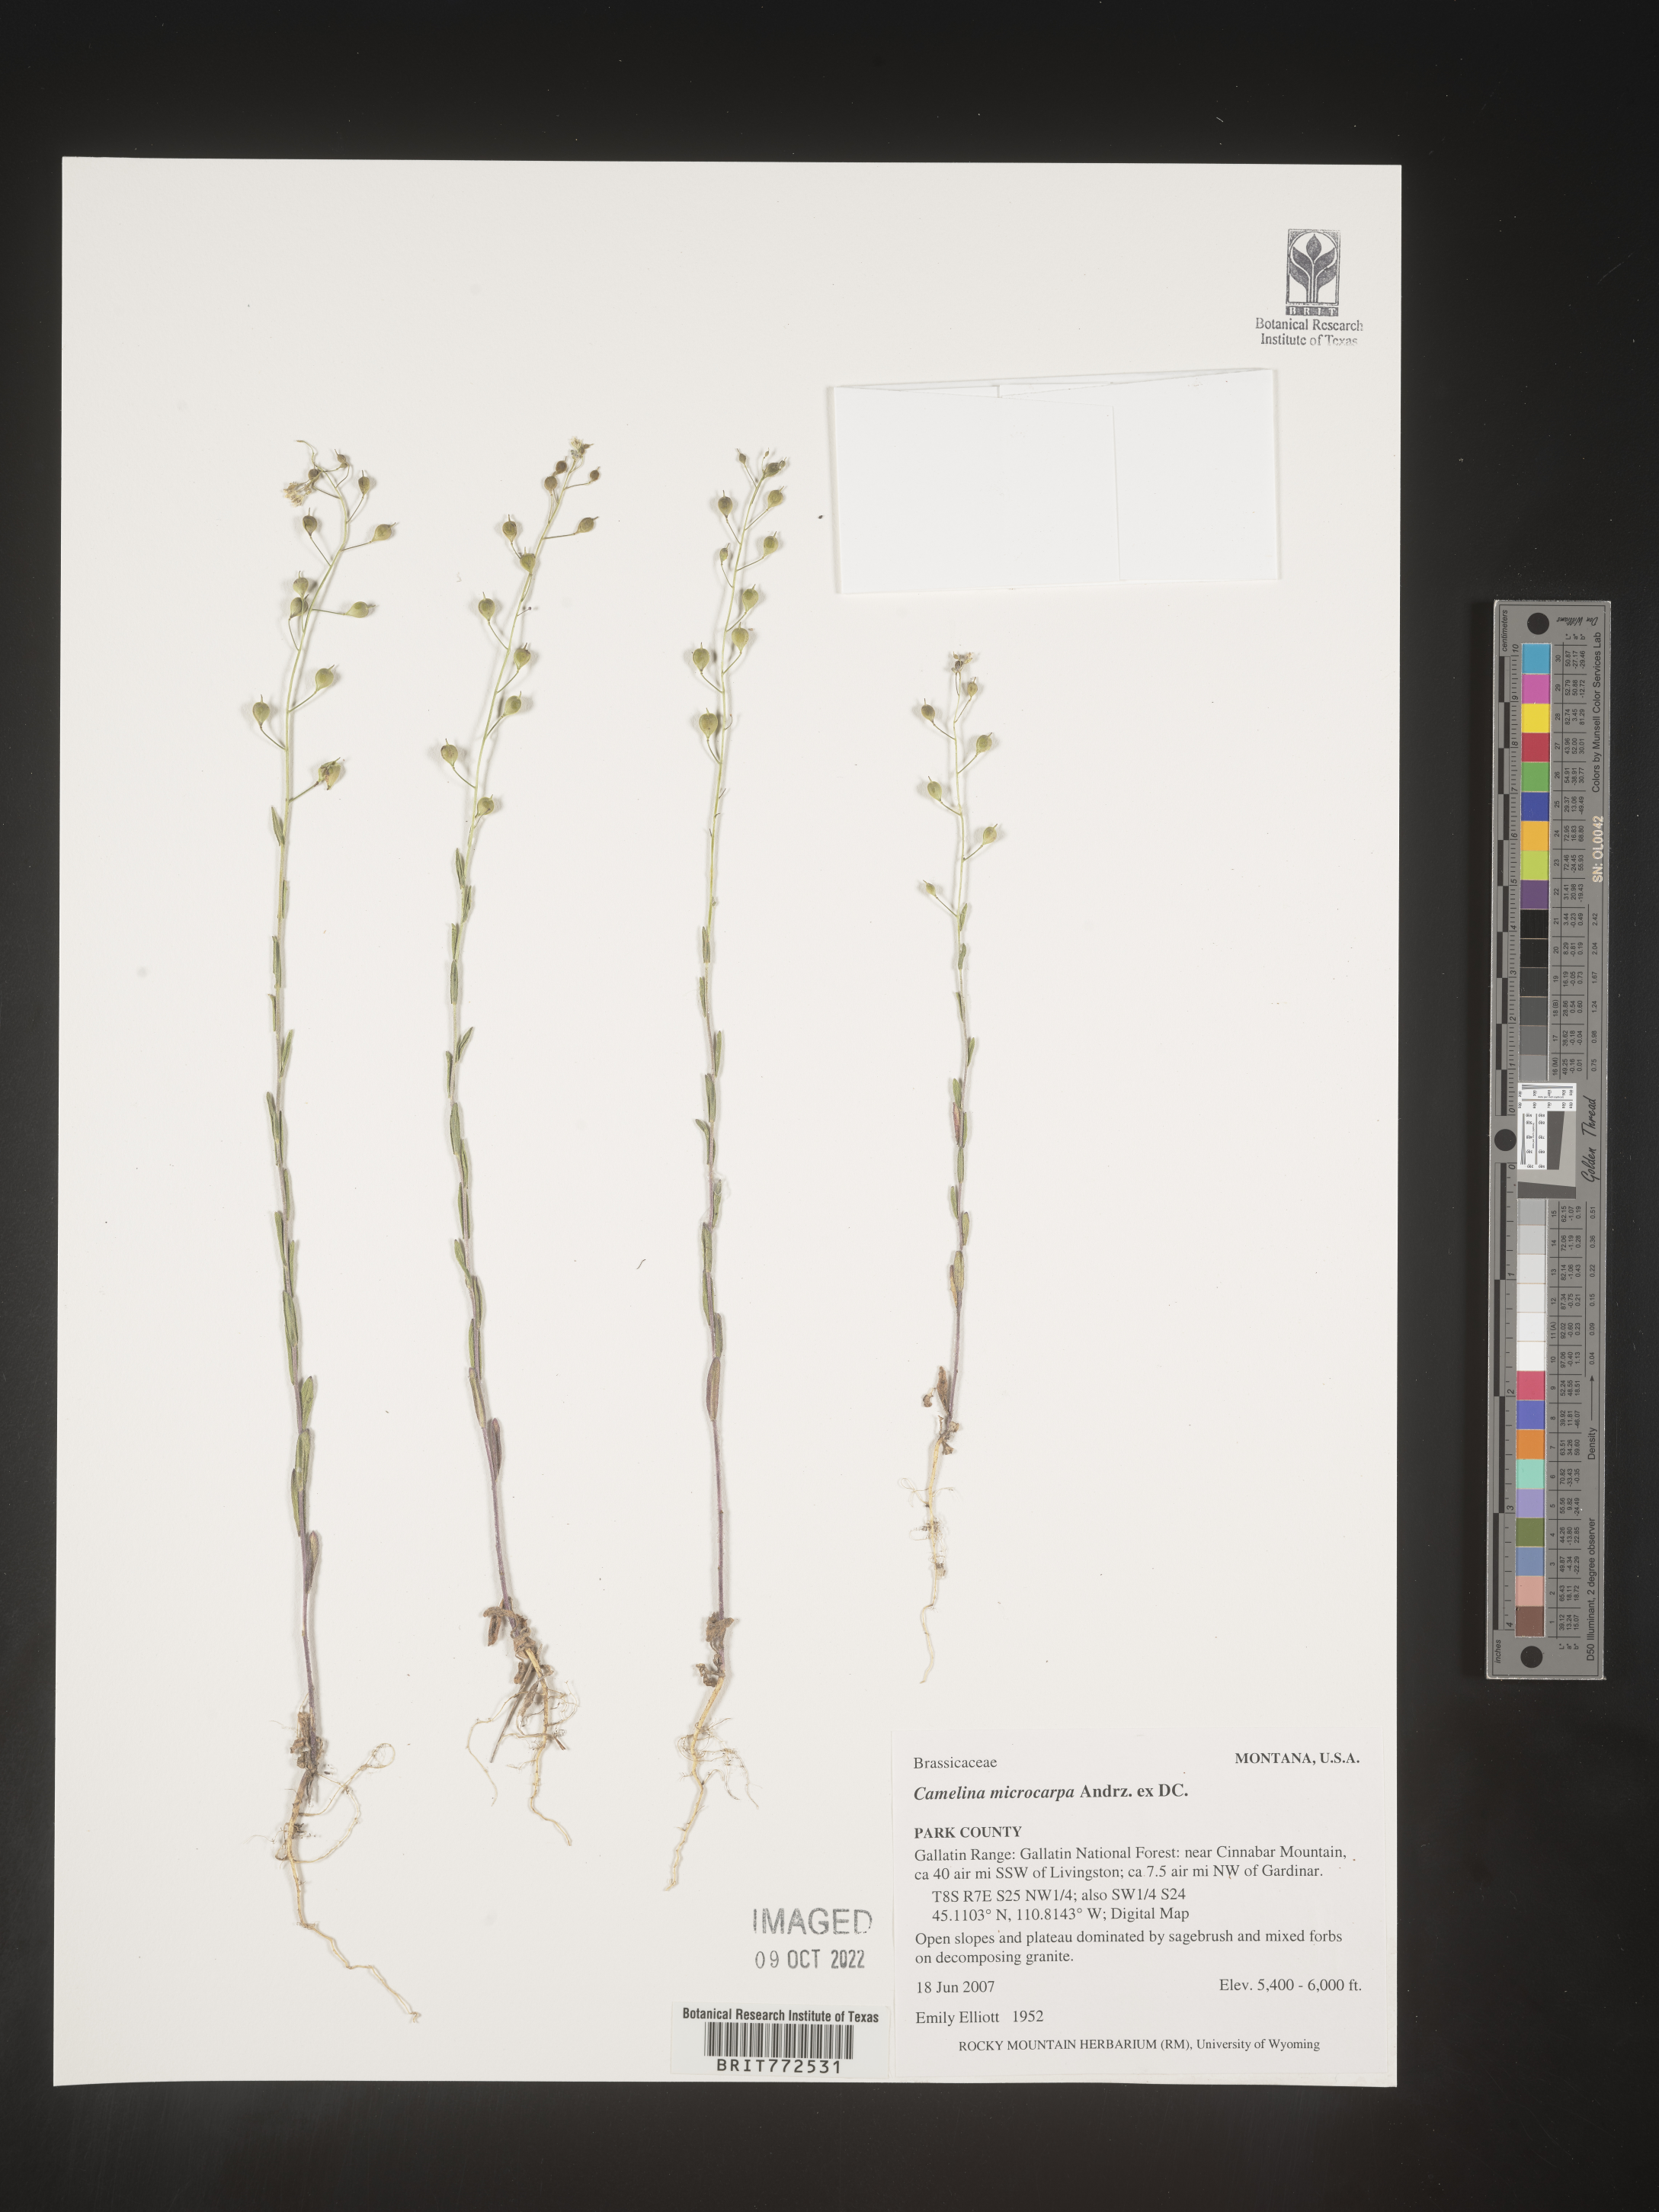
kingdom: Plantae
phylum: Tracheophyta
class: Magnoliopsida
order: Brassicales
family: Brassicaceae
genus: Camelina
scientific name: Camelina microcarpa
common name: Lesser gold-of-pleasure
